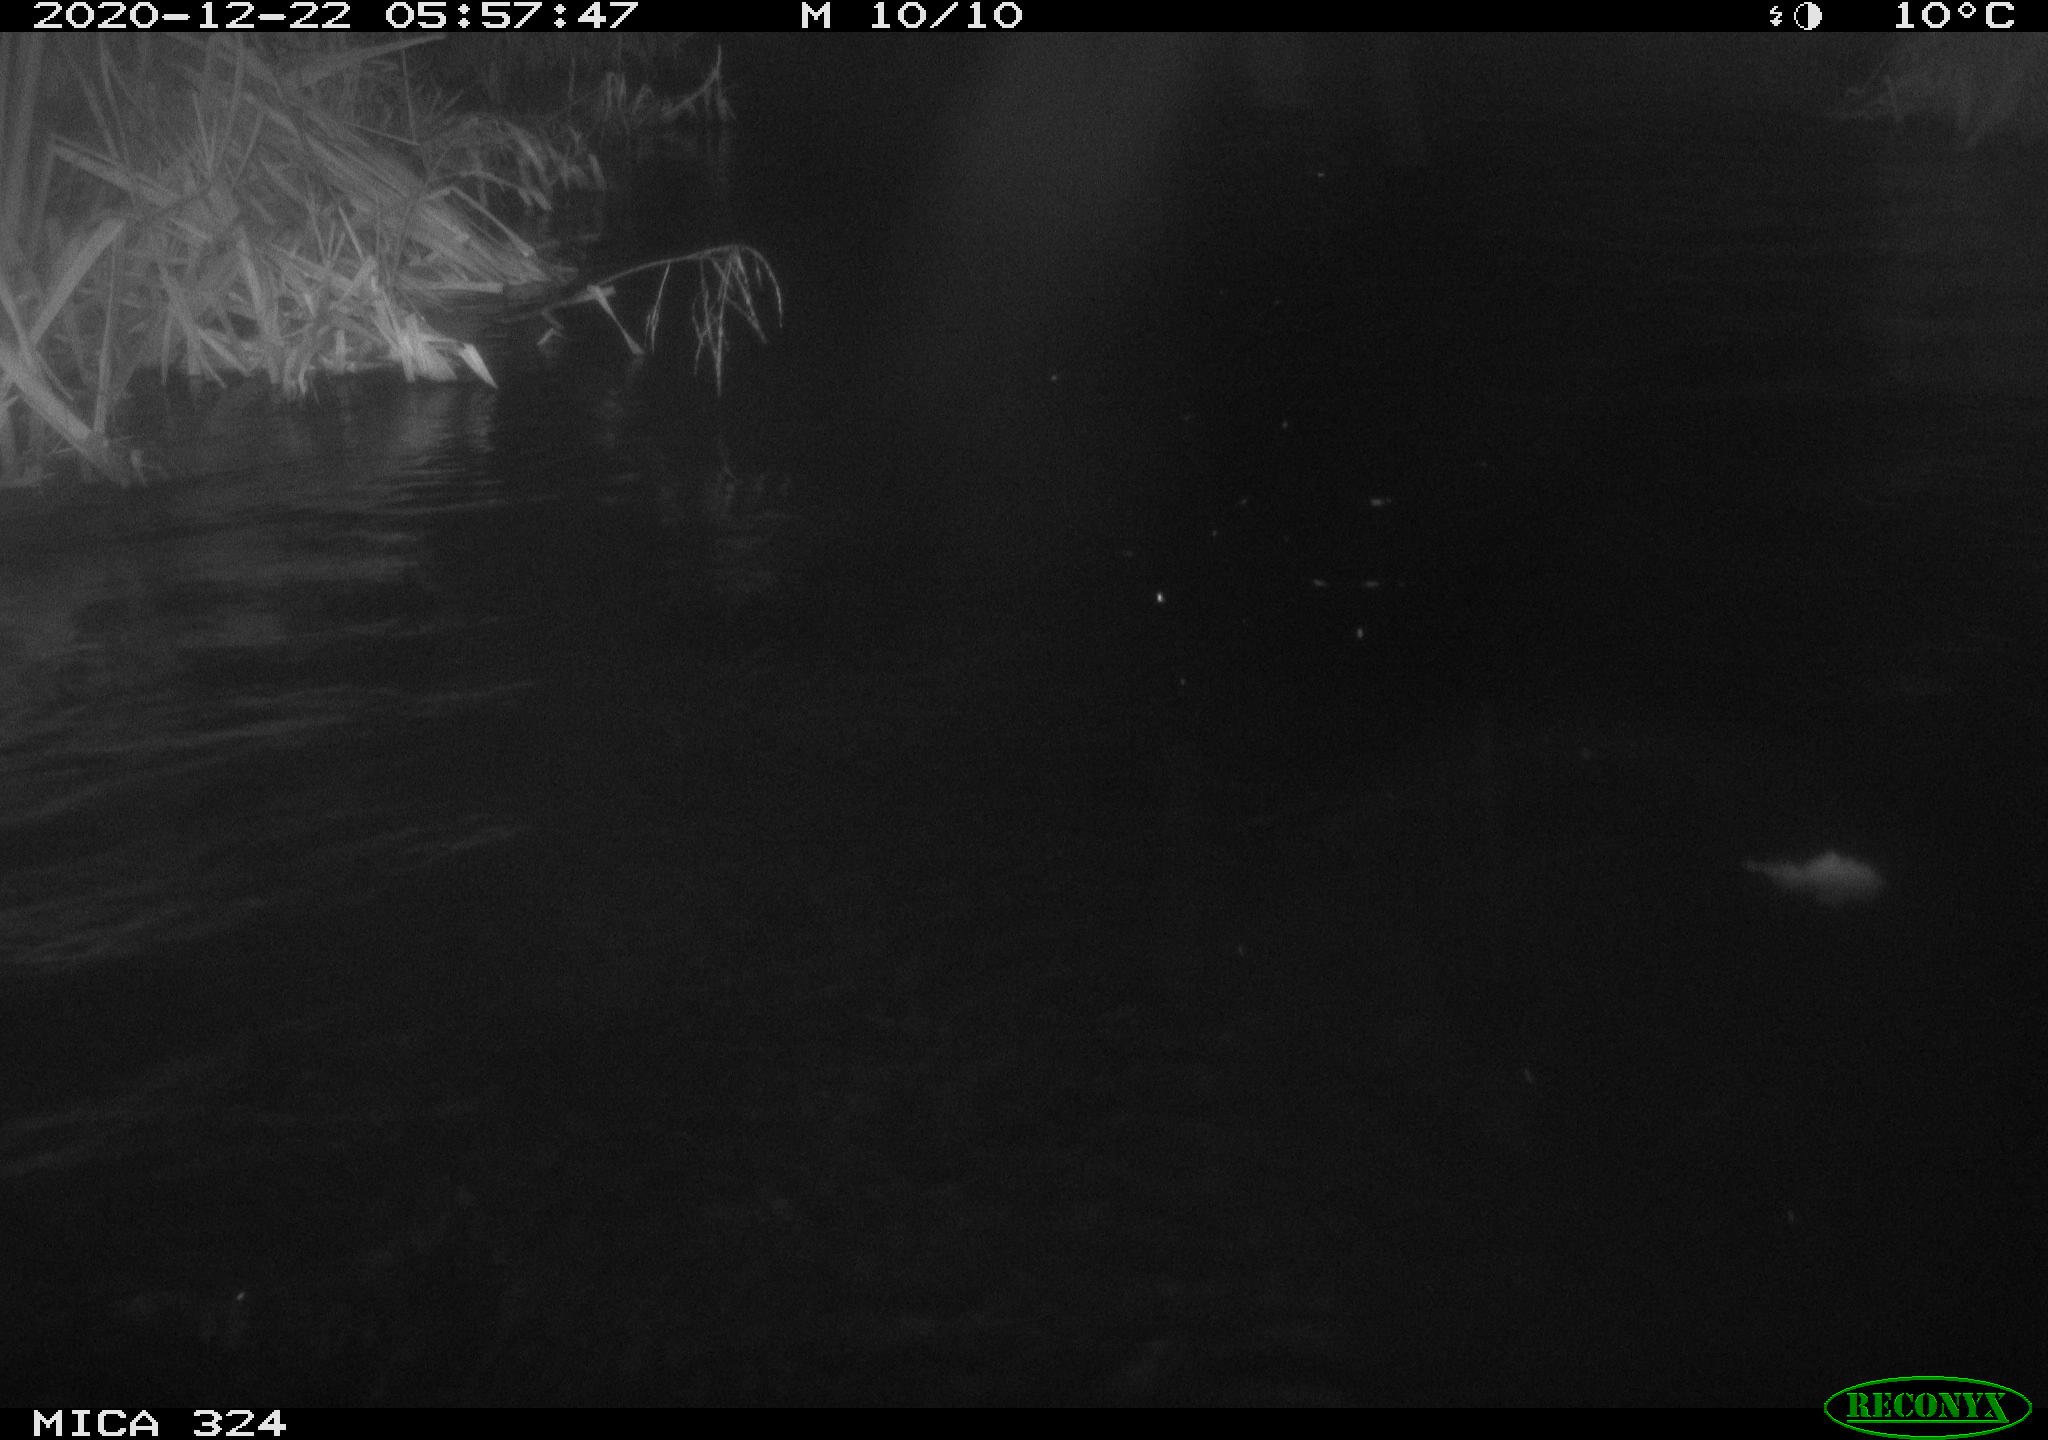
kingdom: Animalia
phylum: Chordata
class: Mammalia
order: Rodentia
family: Myocastoridae
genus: Myocastor
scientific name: Myocastor coypus
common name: Coypu
